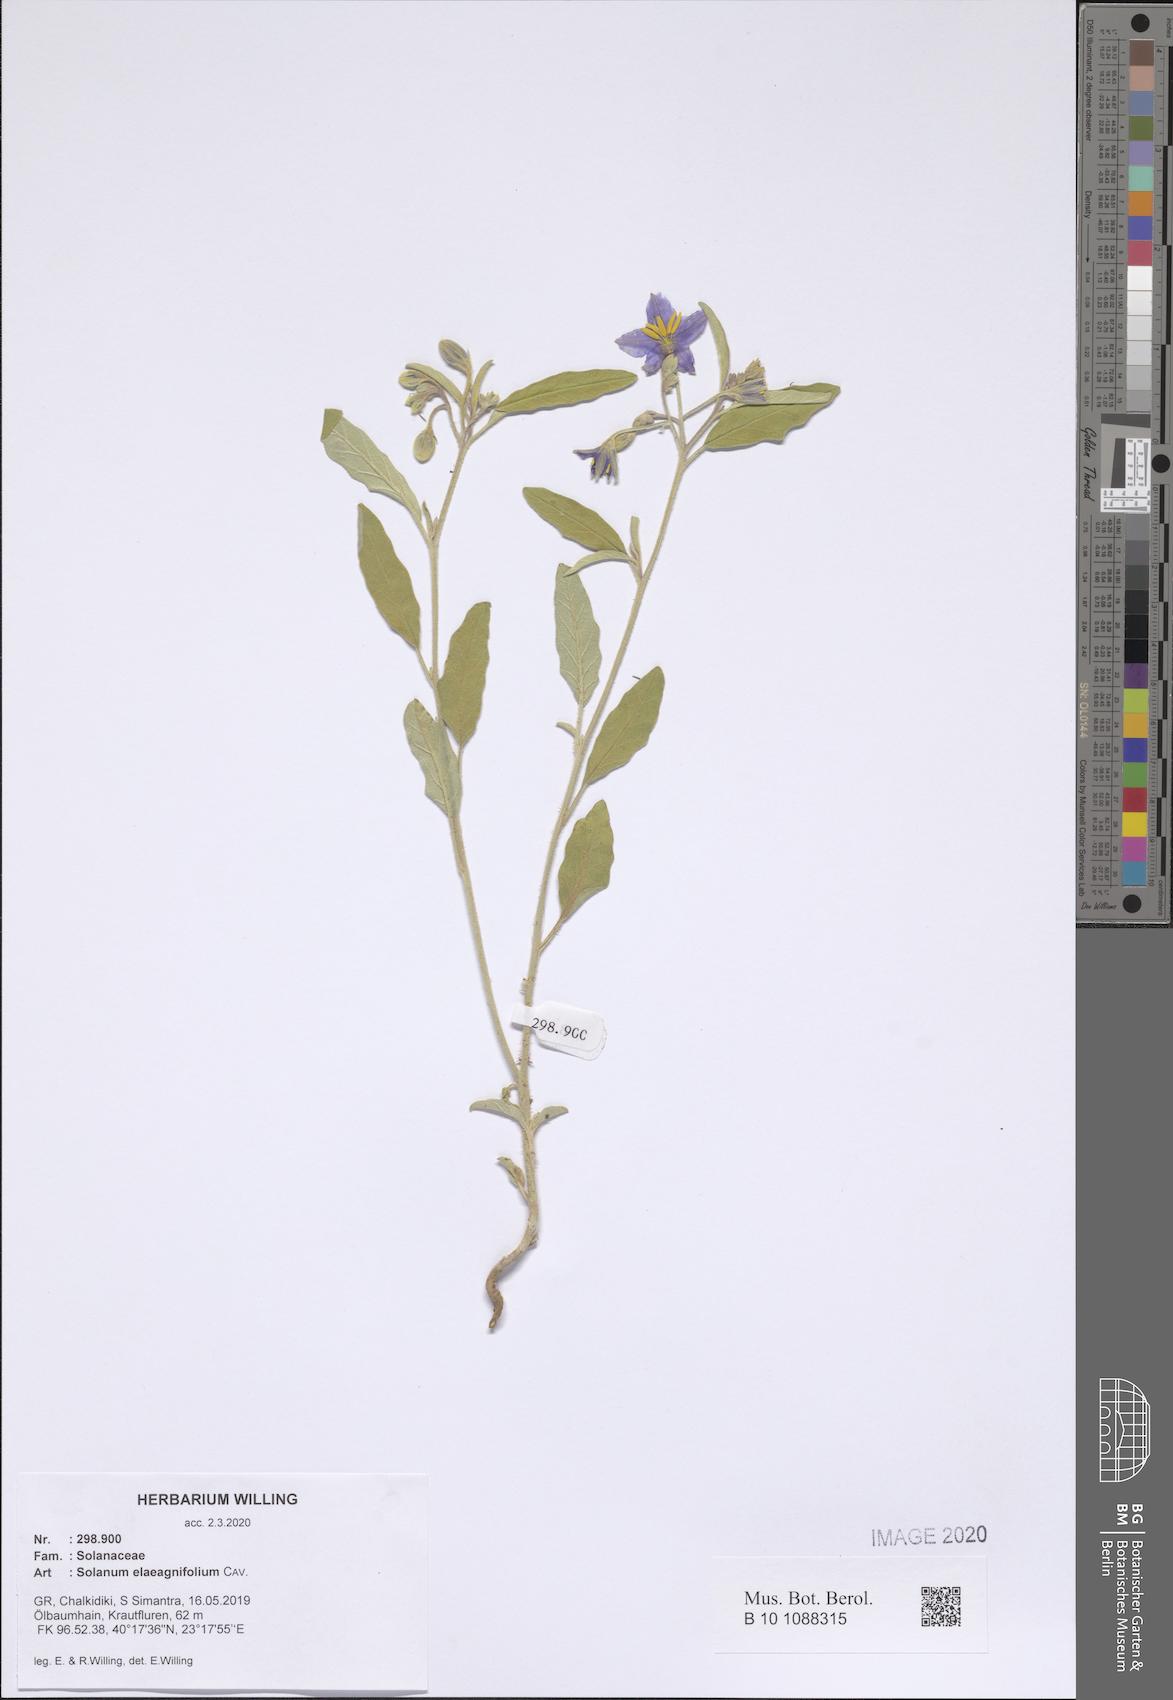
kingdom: Plantae
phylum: Tracheophyta
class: Magnoliopsida
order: Solanales
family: Solanaceae
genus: Solanum
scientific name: Solanum elaeagnifolium
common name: Silverleaf nightshade
